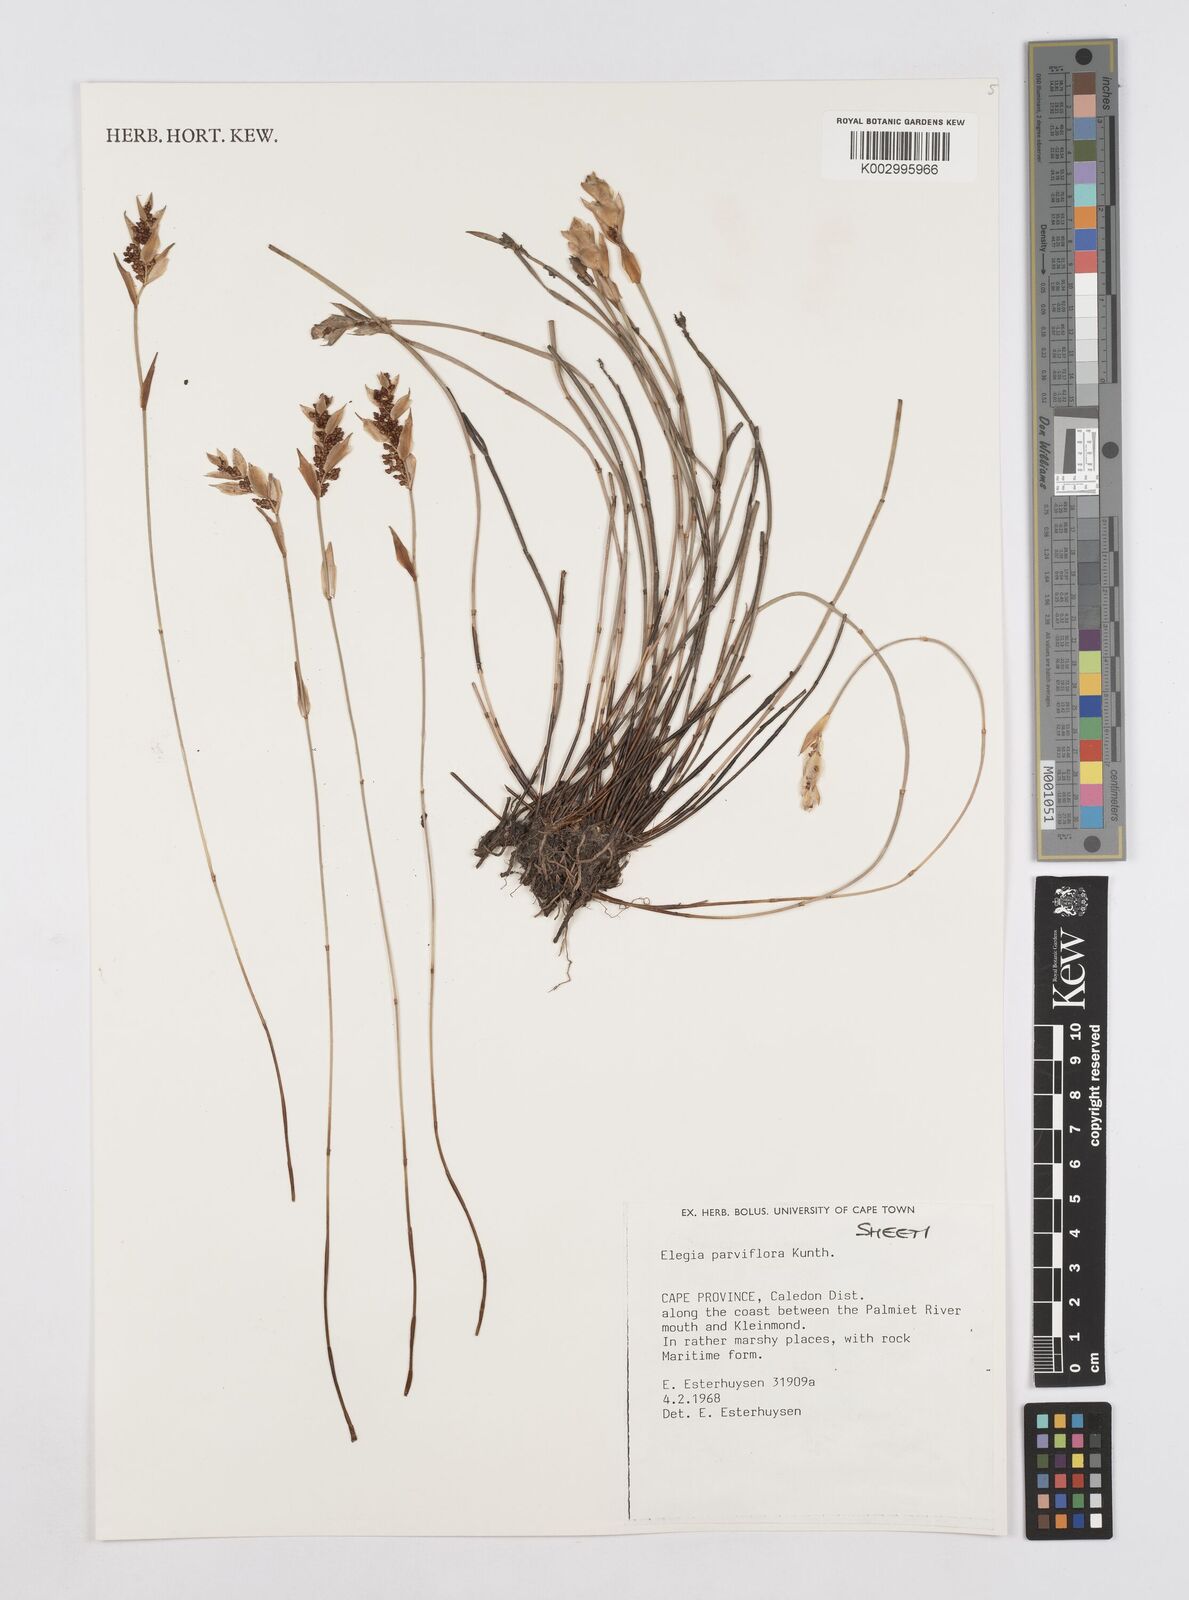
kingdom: Plantae
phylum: Tracheophyta
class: Liliopsida
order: Poales
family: Restionaceae
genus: Cannomois
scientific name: Cannomois parviflora
